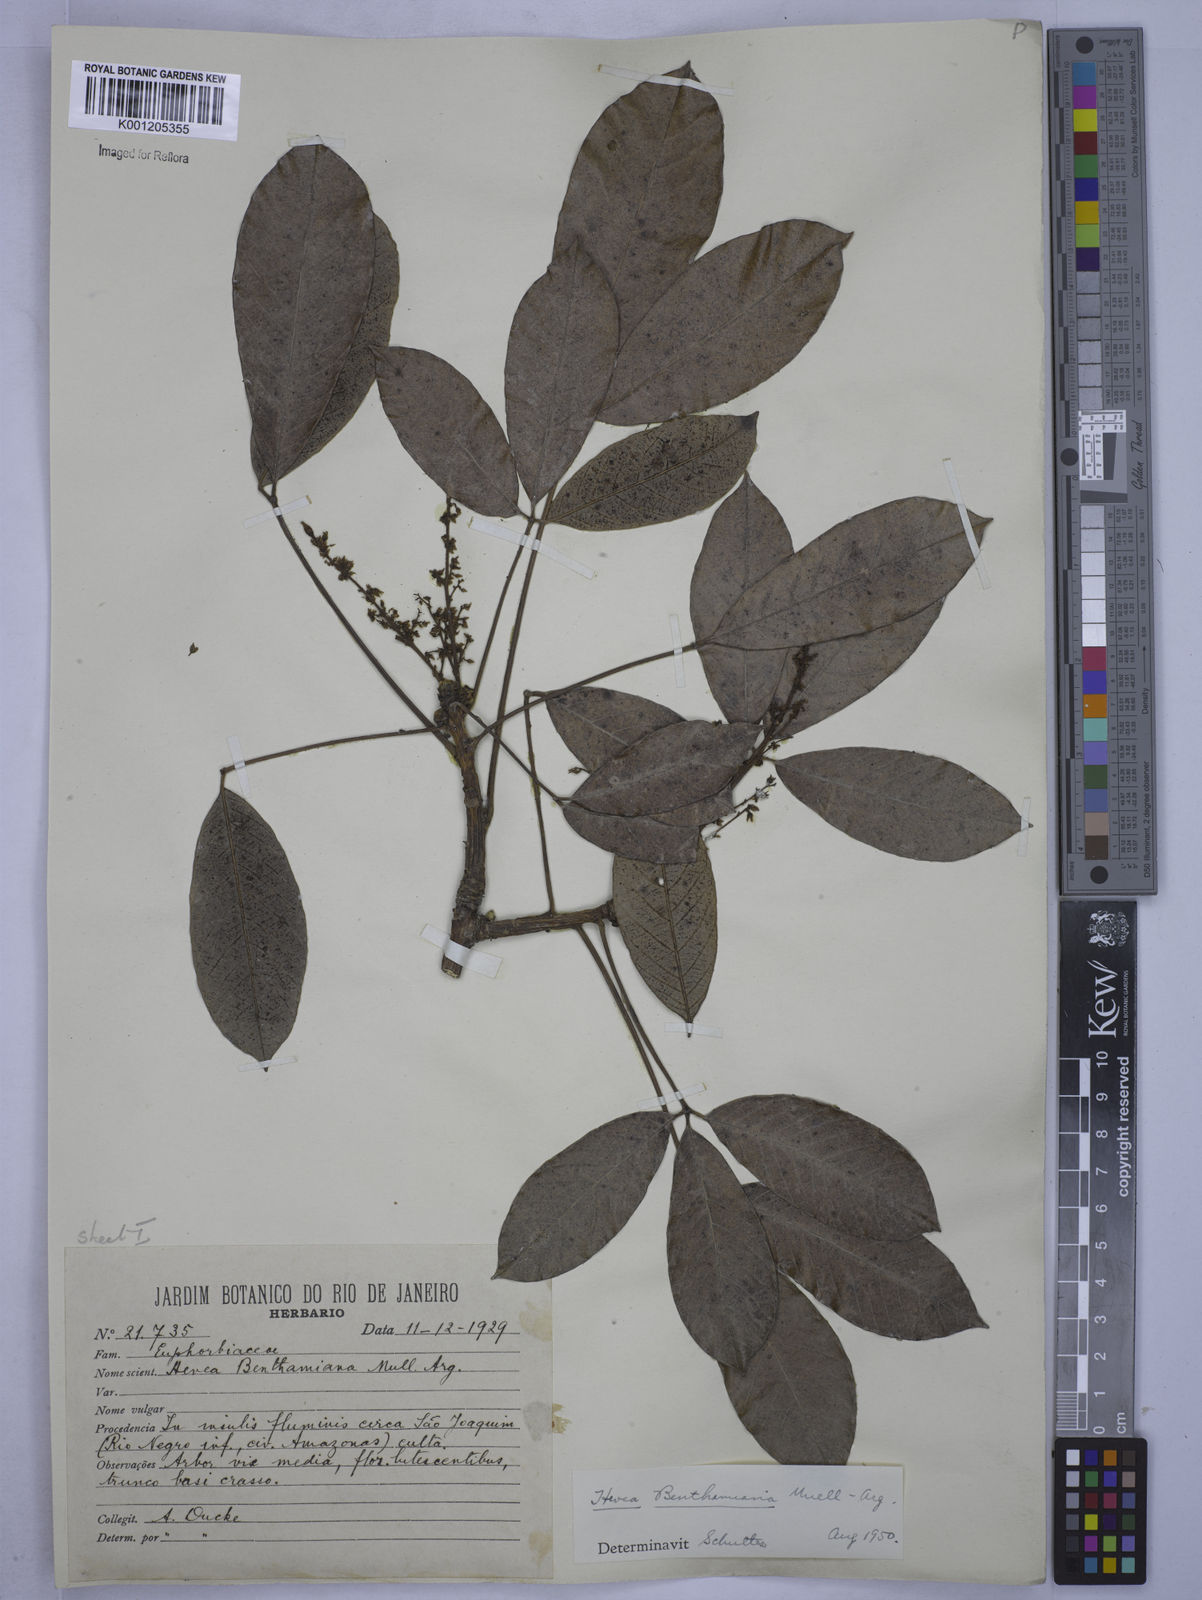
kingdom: Plantae
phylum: Tracheophyta
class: Magnoliopsida
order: Malpighiales
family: Euphorbiaceae
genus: Hevea
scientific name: Hevea
